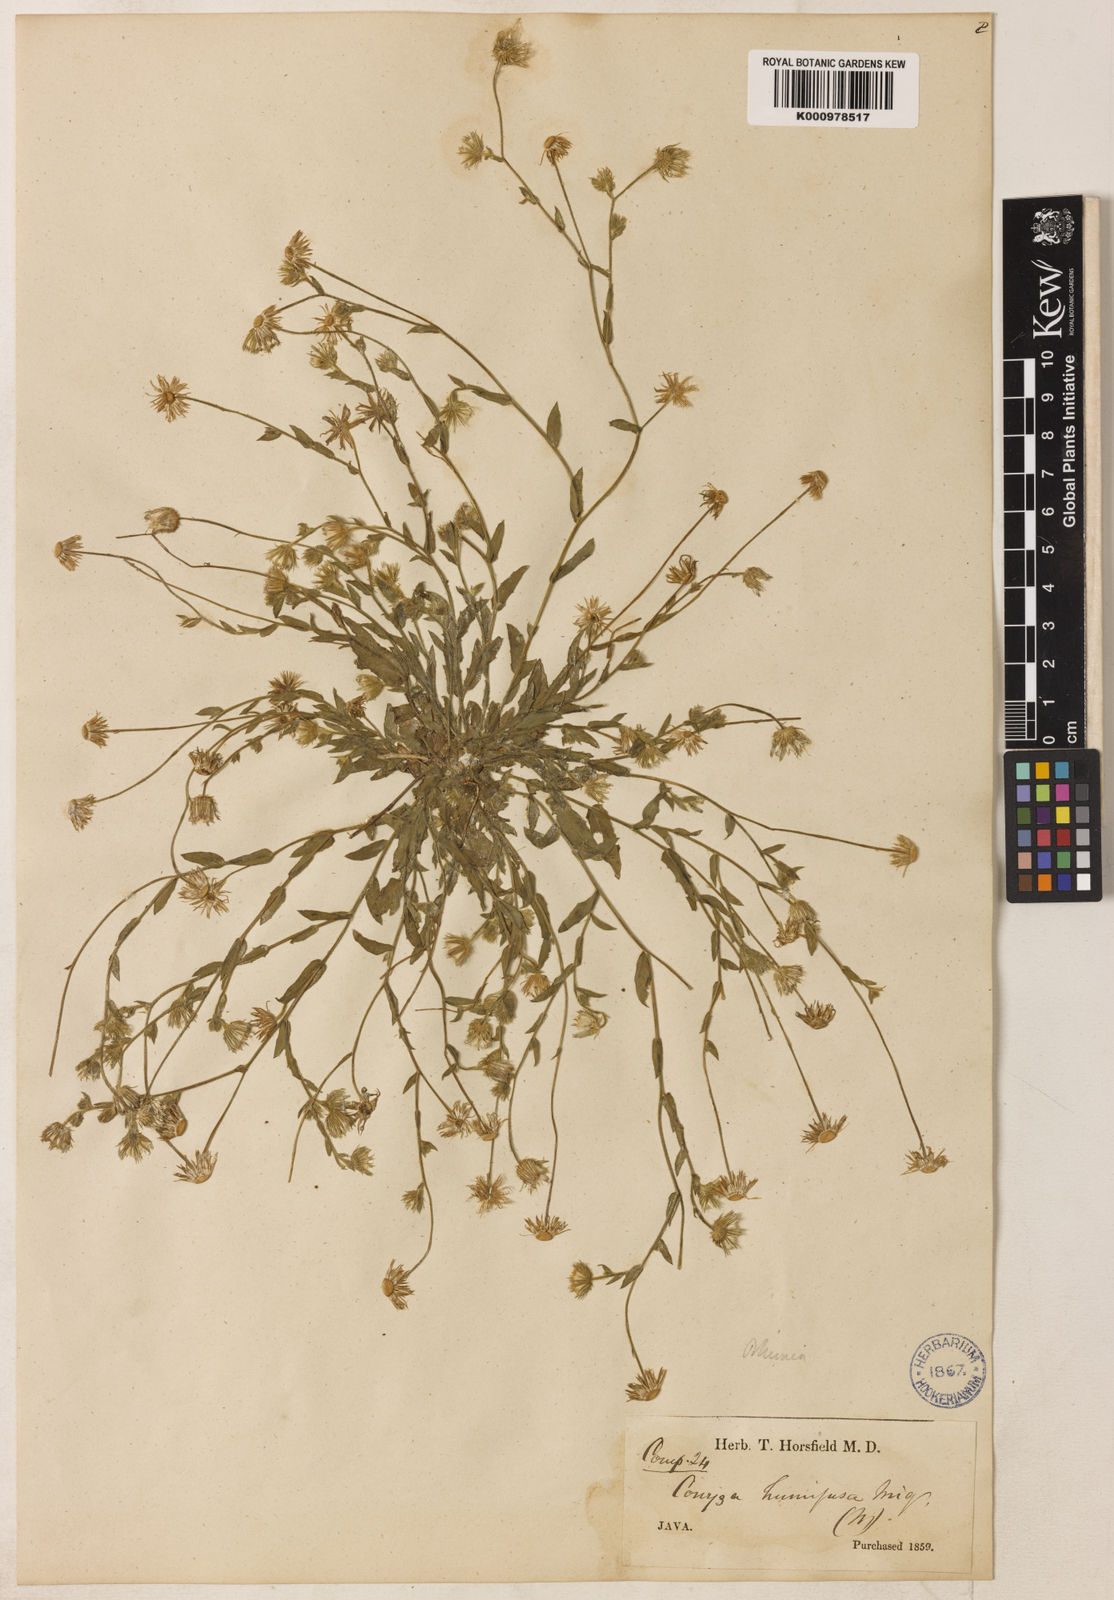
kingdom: Plantae
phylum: Tracheophyta
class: Magnoliopsida
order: Asterales
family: Asteraceae
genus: Blumea
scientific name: Blumea tenella
